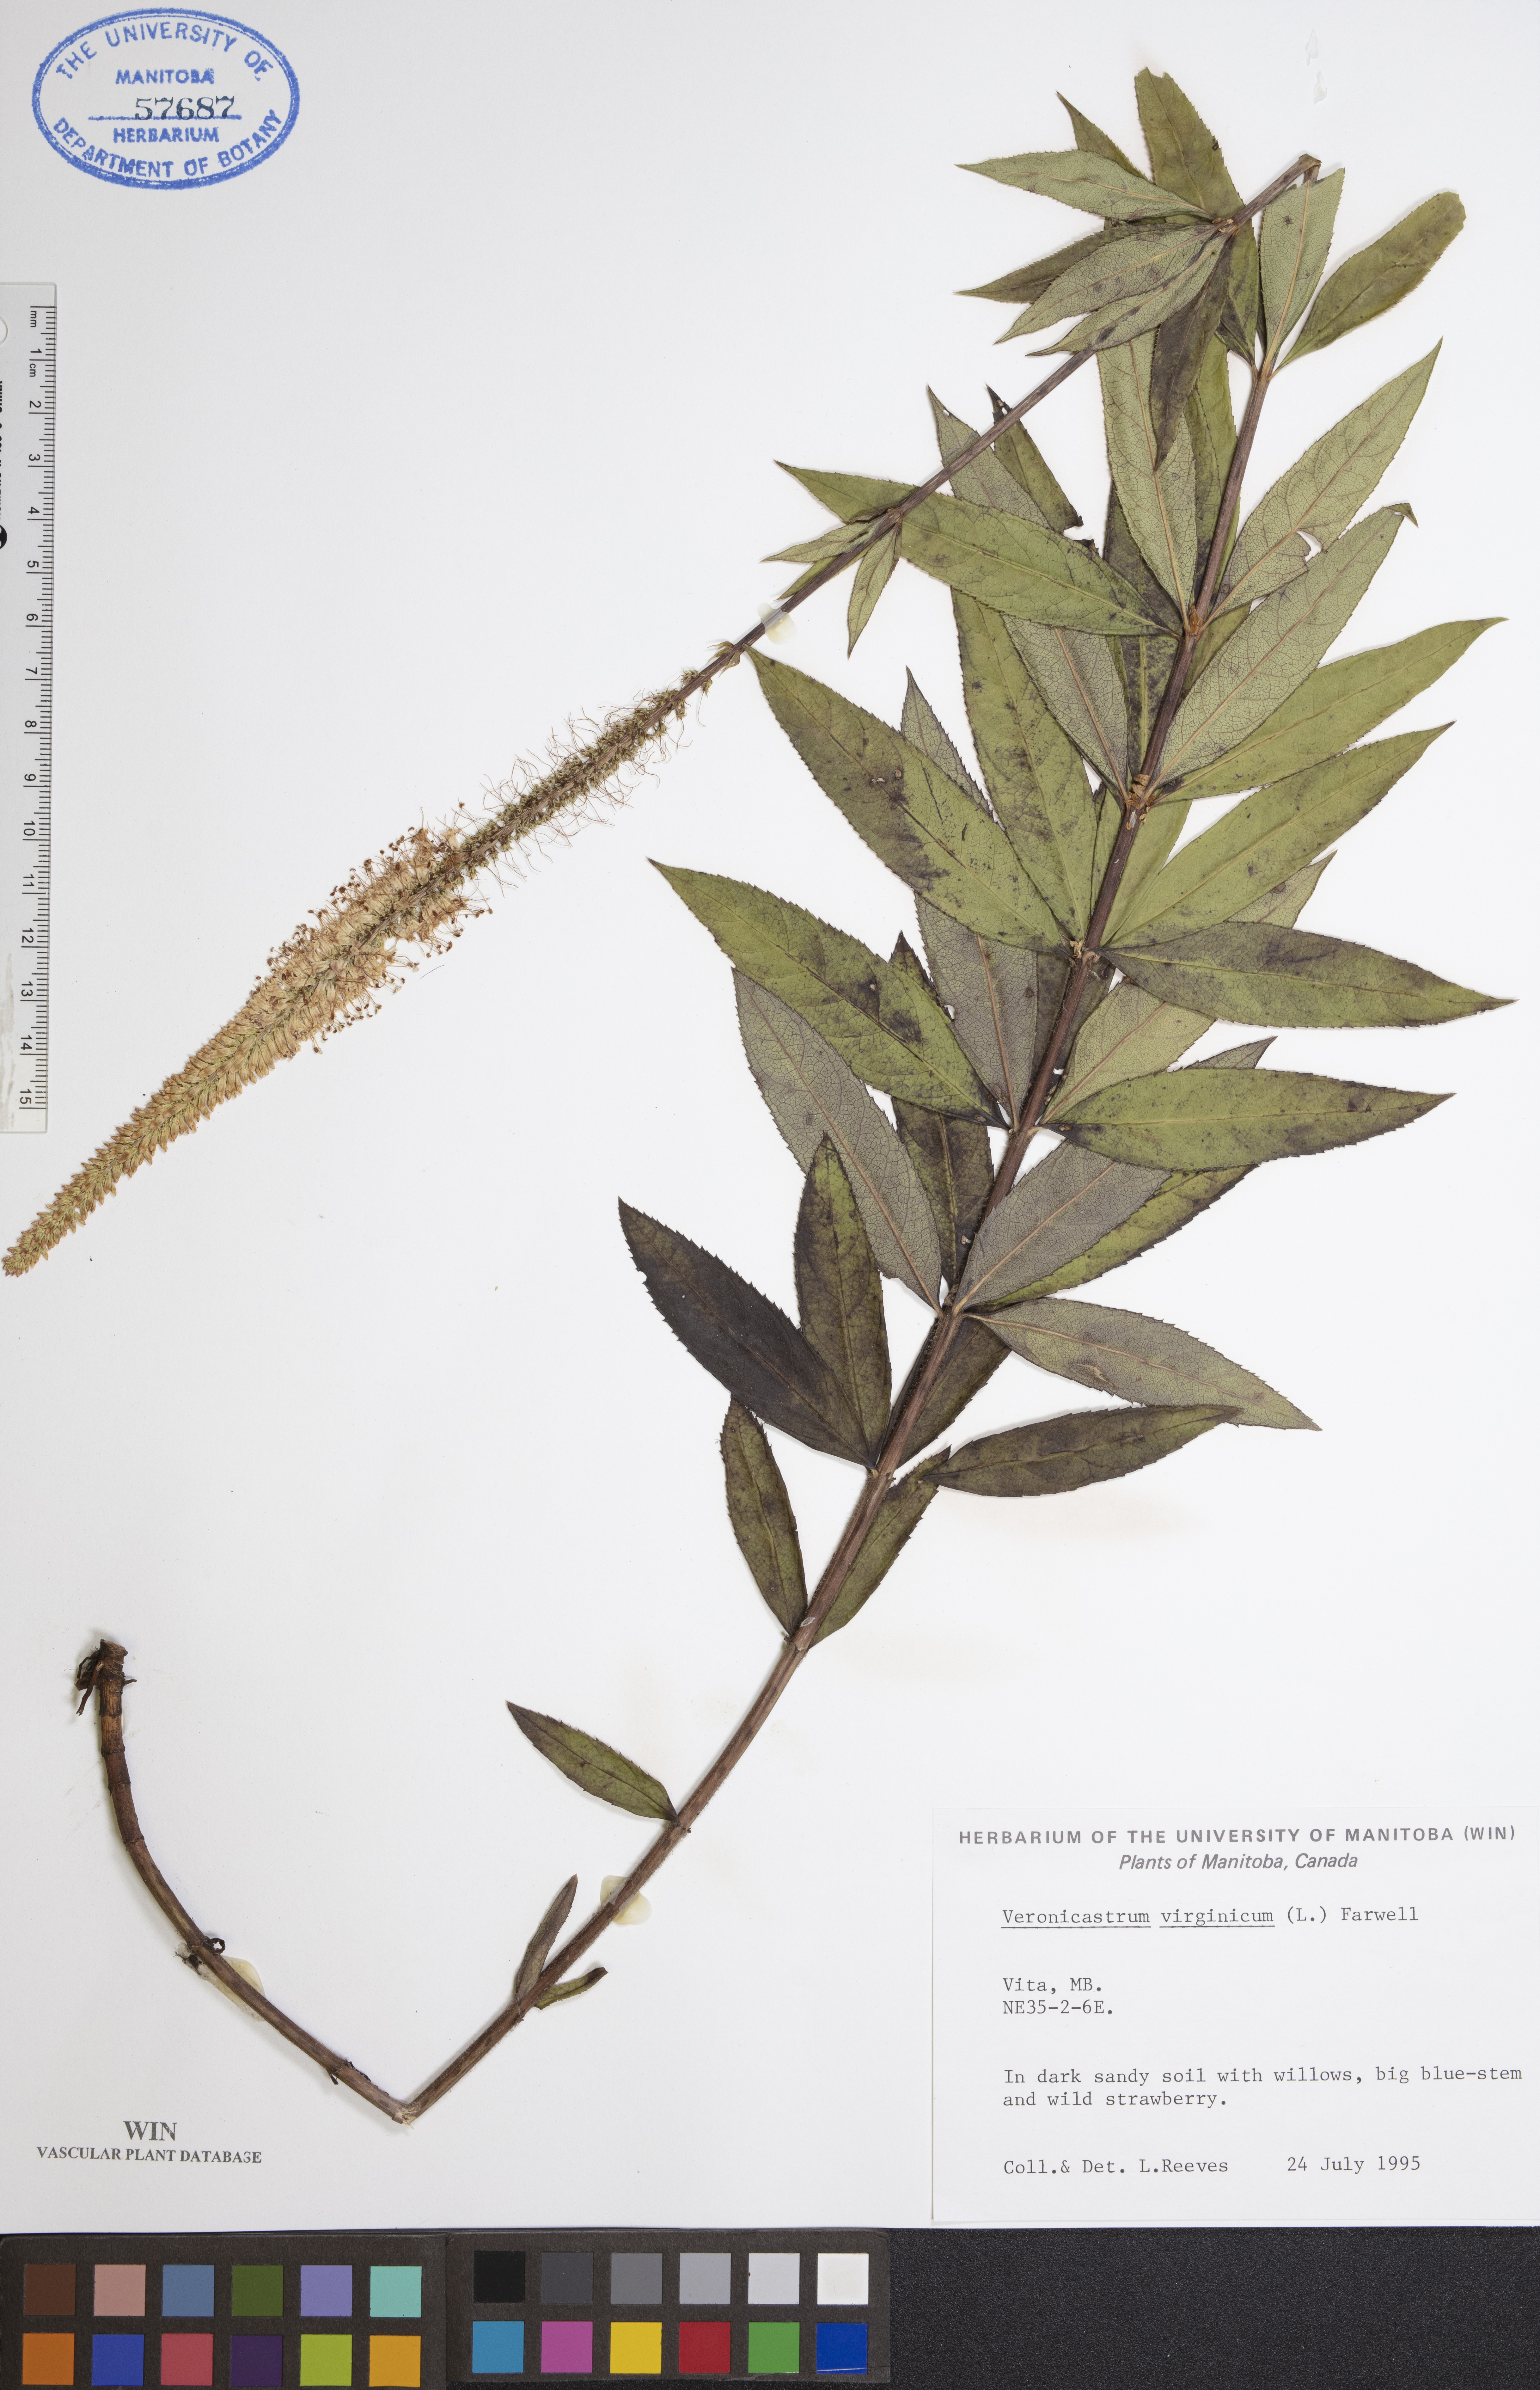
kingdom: Plantae
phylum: Tracheophyta
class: Magnoliopsida
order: Lamiales
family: Plantaginaceae
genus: Veronicastrum
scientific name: Veronicastrum virginicum
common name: Blackroot
